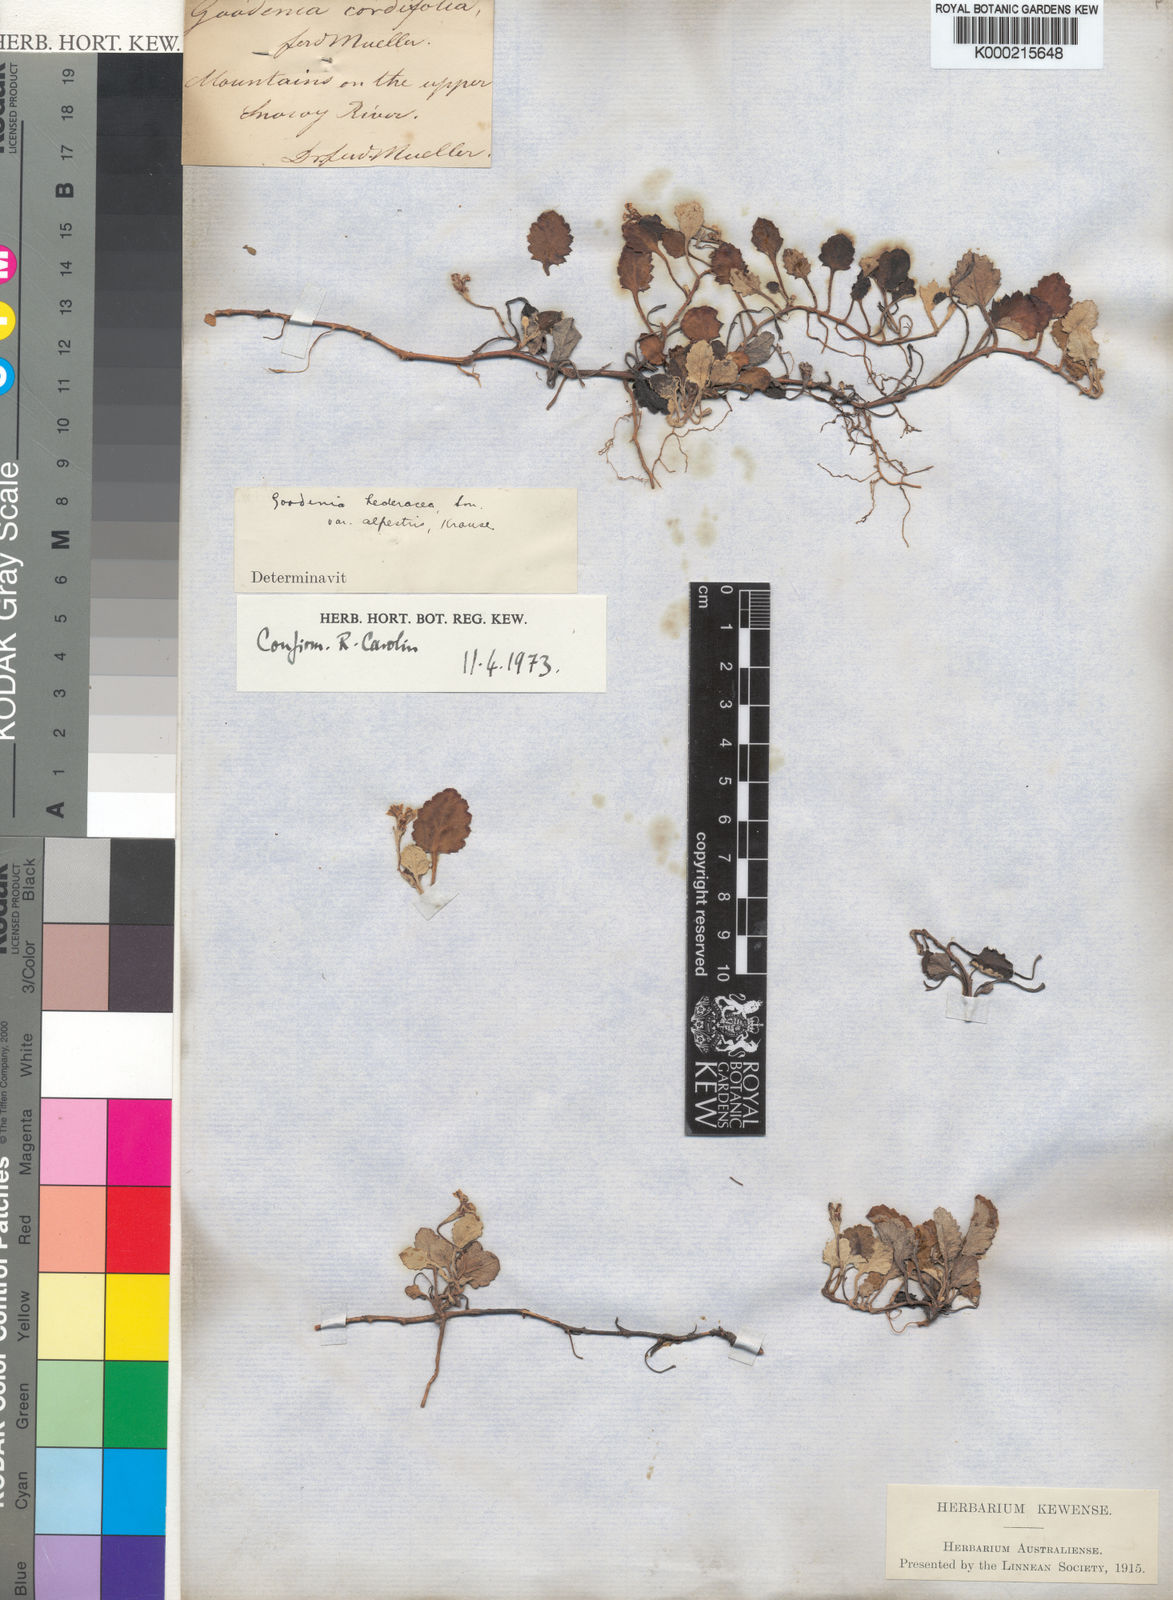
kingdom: Plantae
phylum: Tracheophyta
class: Magnoliopsida
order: Asterales
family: Goodeniaceae
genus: Goodenia
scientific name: Goodenia hederacea
